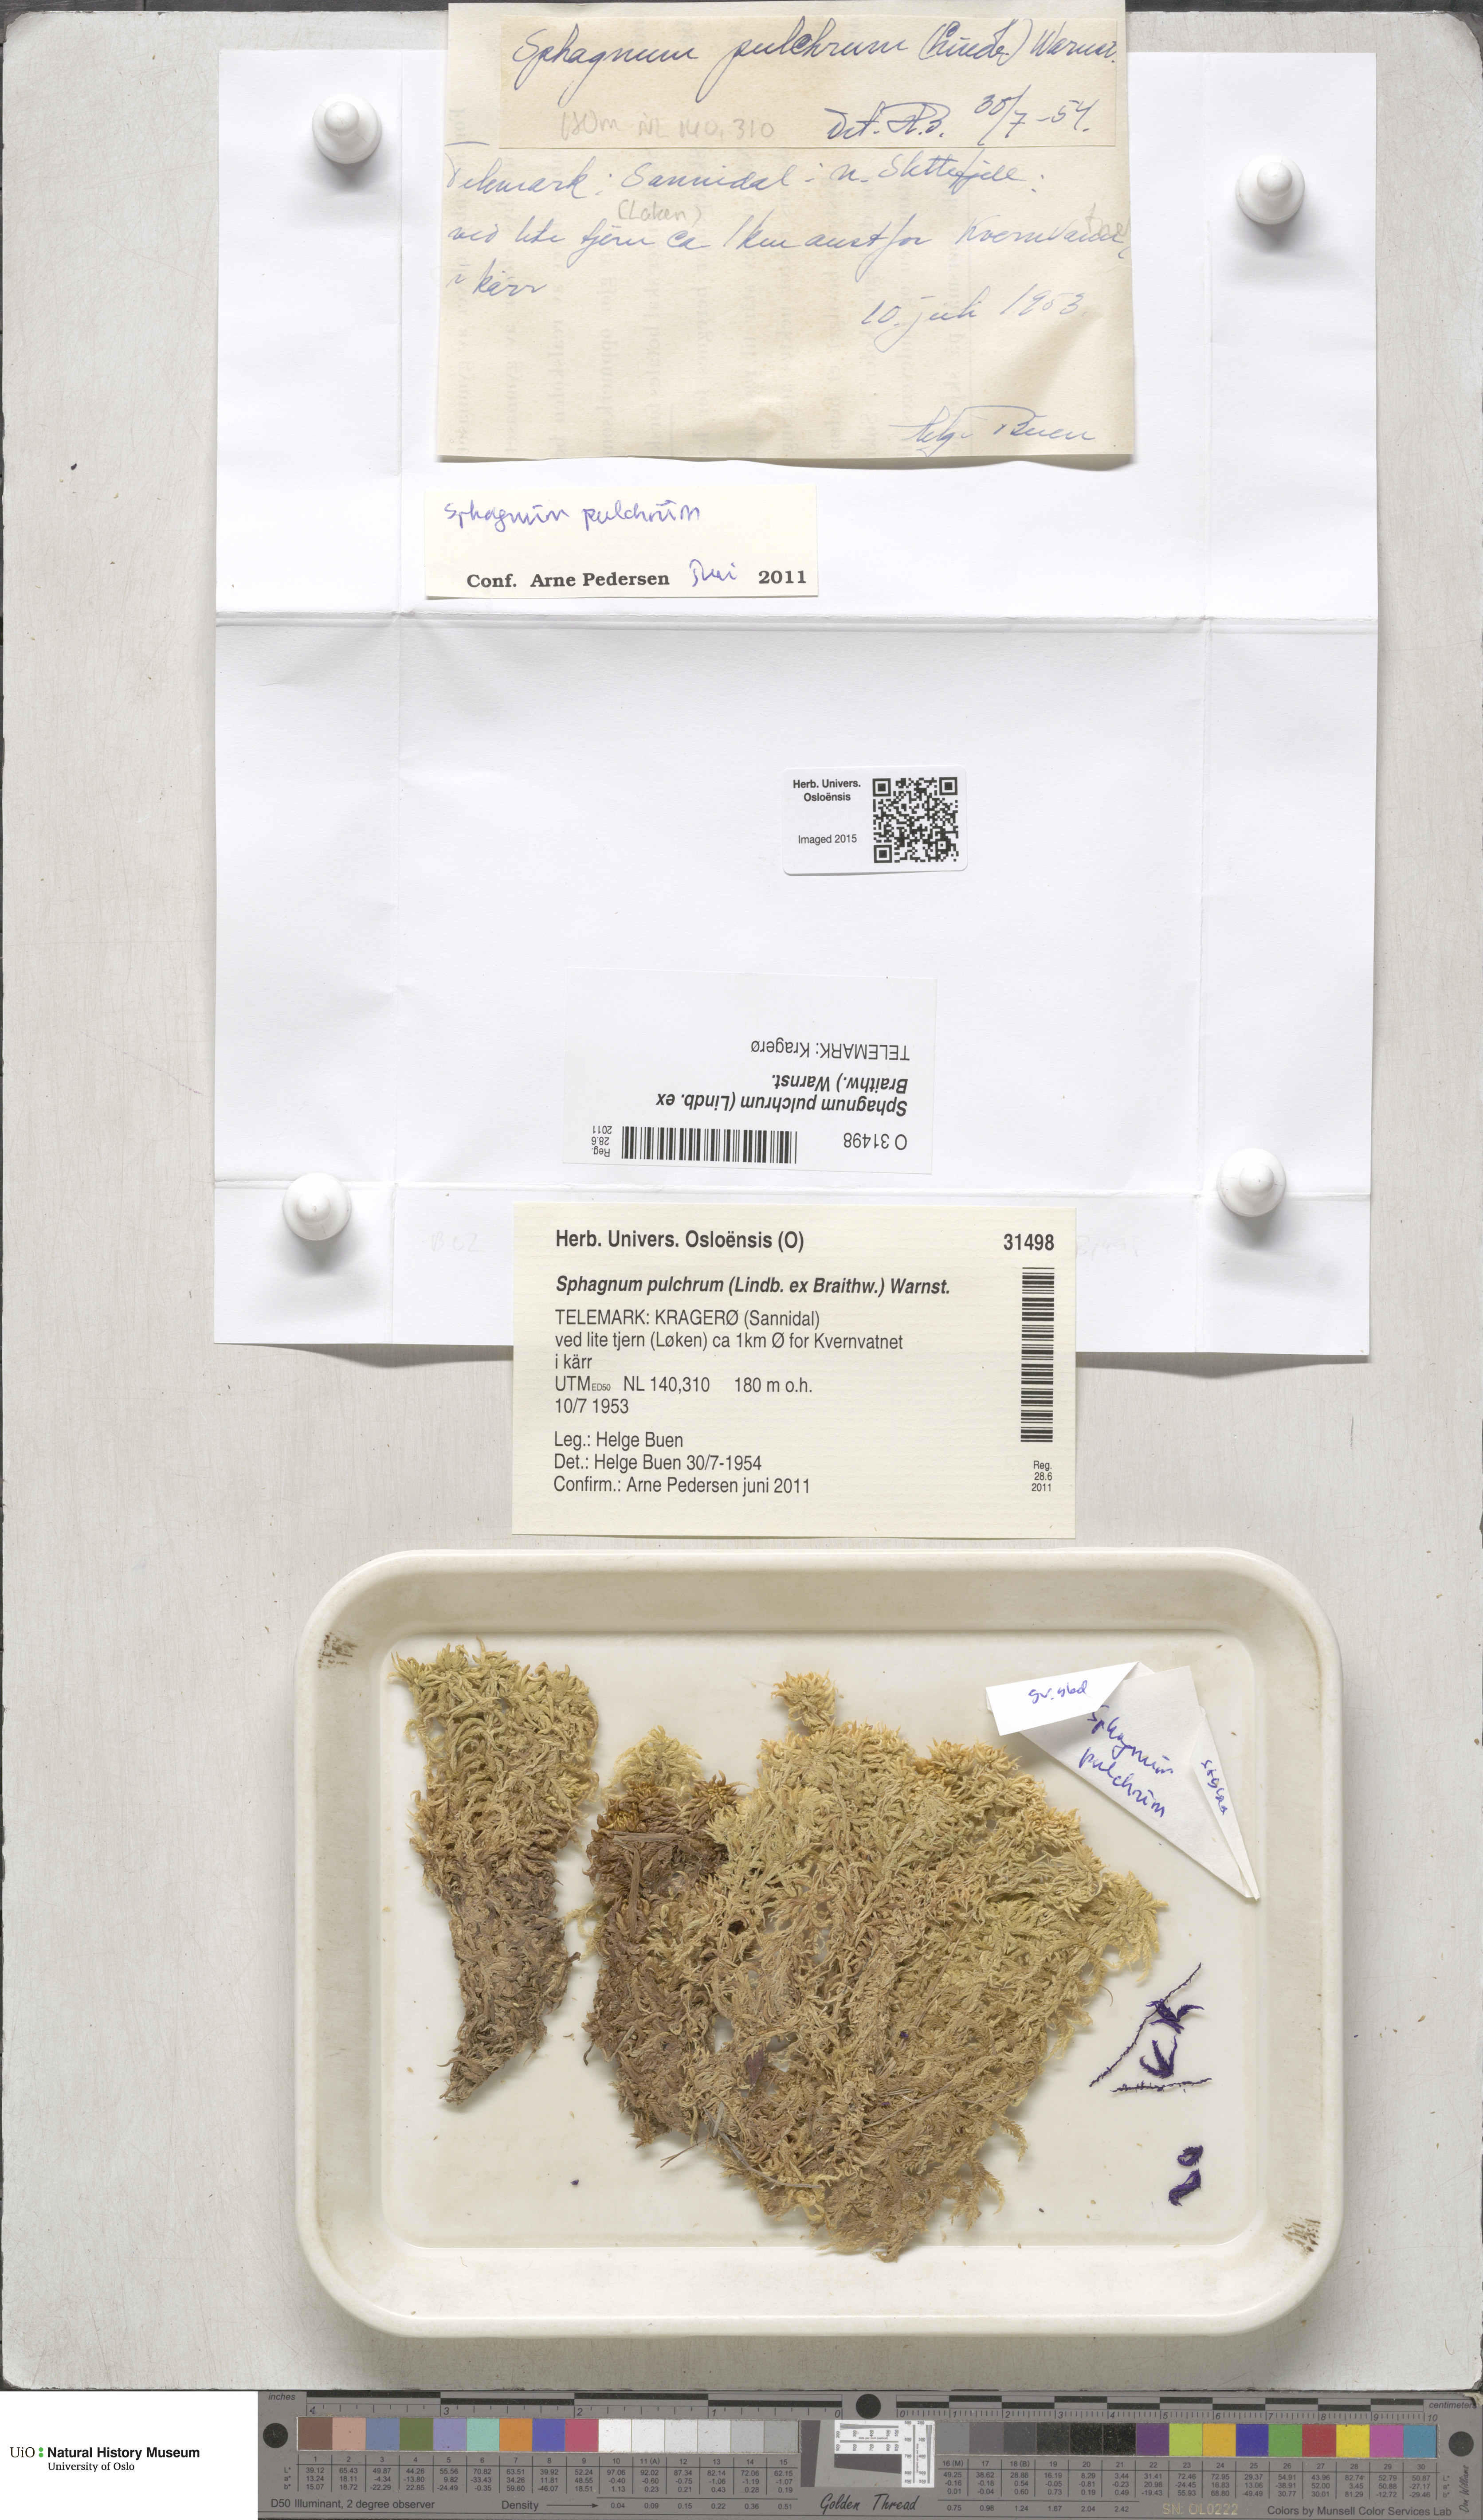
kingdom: Plantae
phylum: Bryophyta
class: Sphagnopsida
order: Sphagnales
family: Sphagnaceae
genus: Sphagnum
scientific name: Sphagnum pulchrum
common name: Beautiful peat moss
